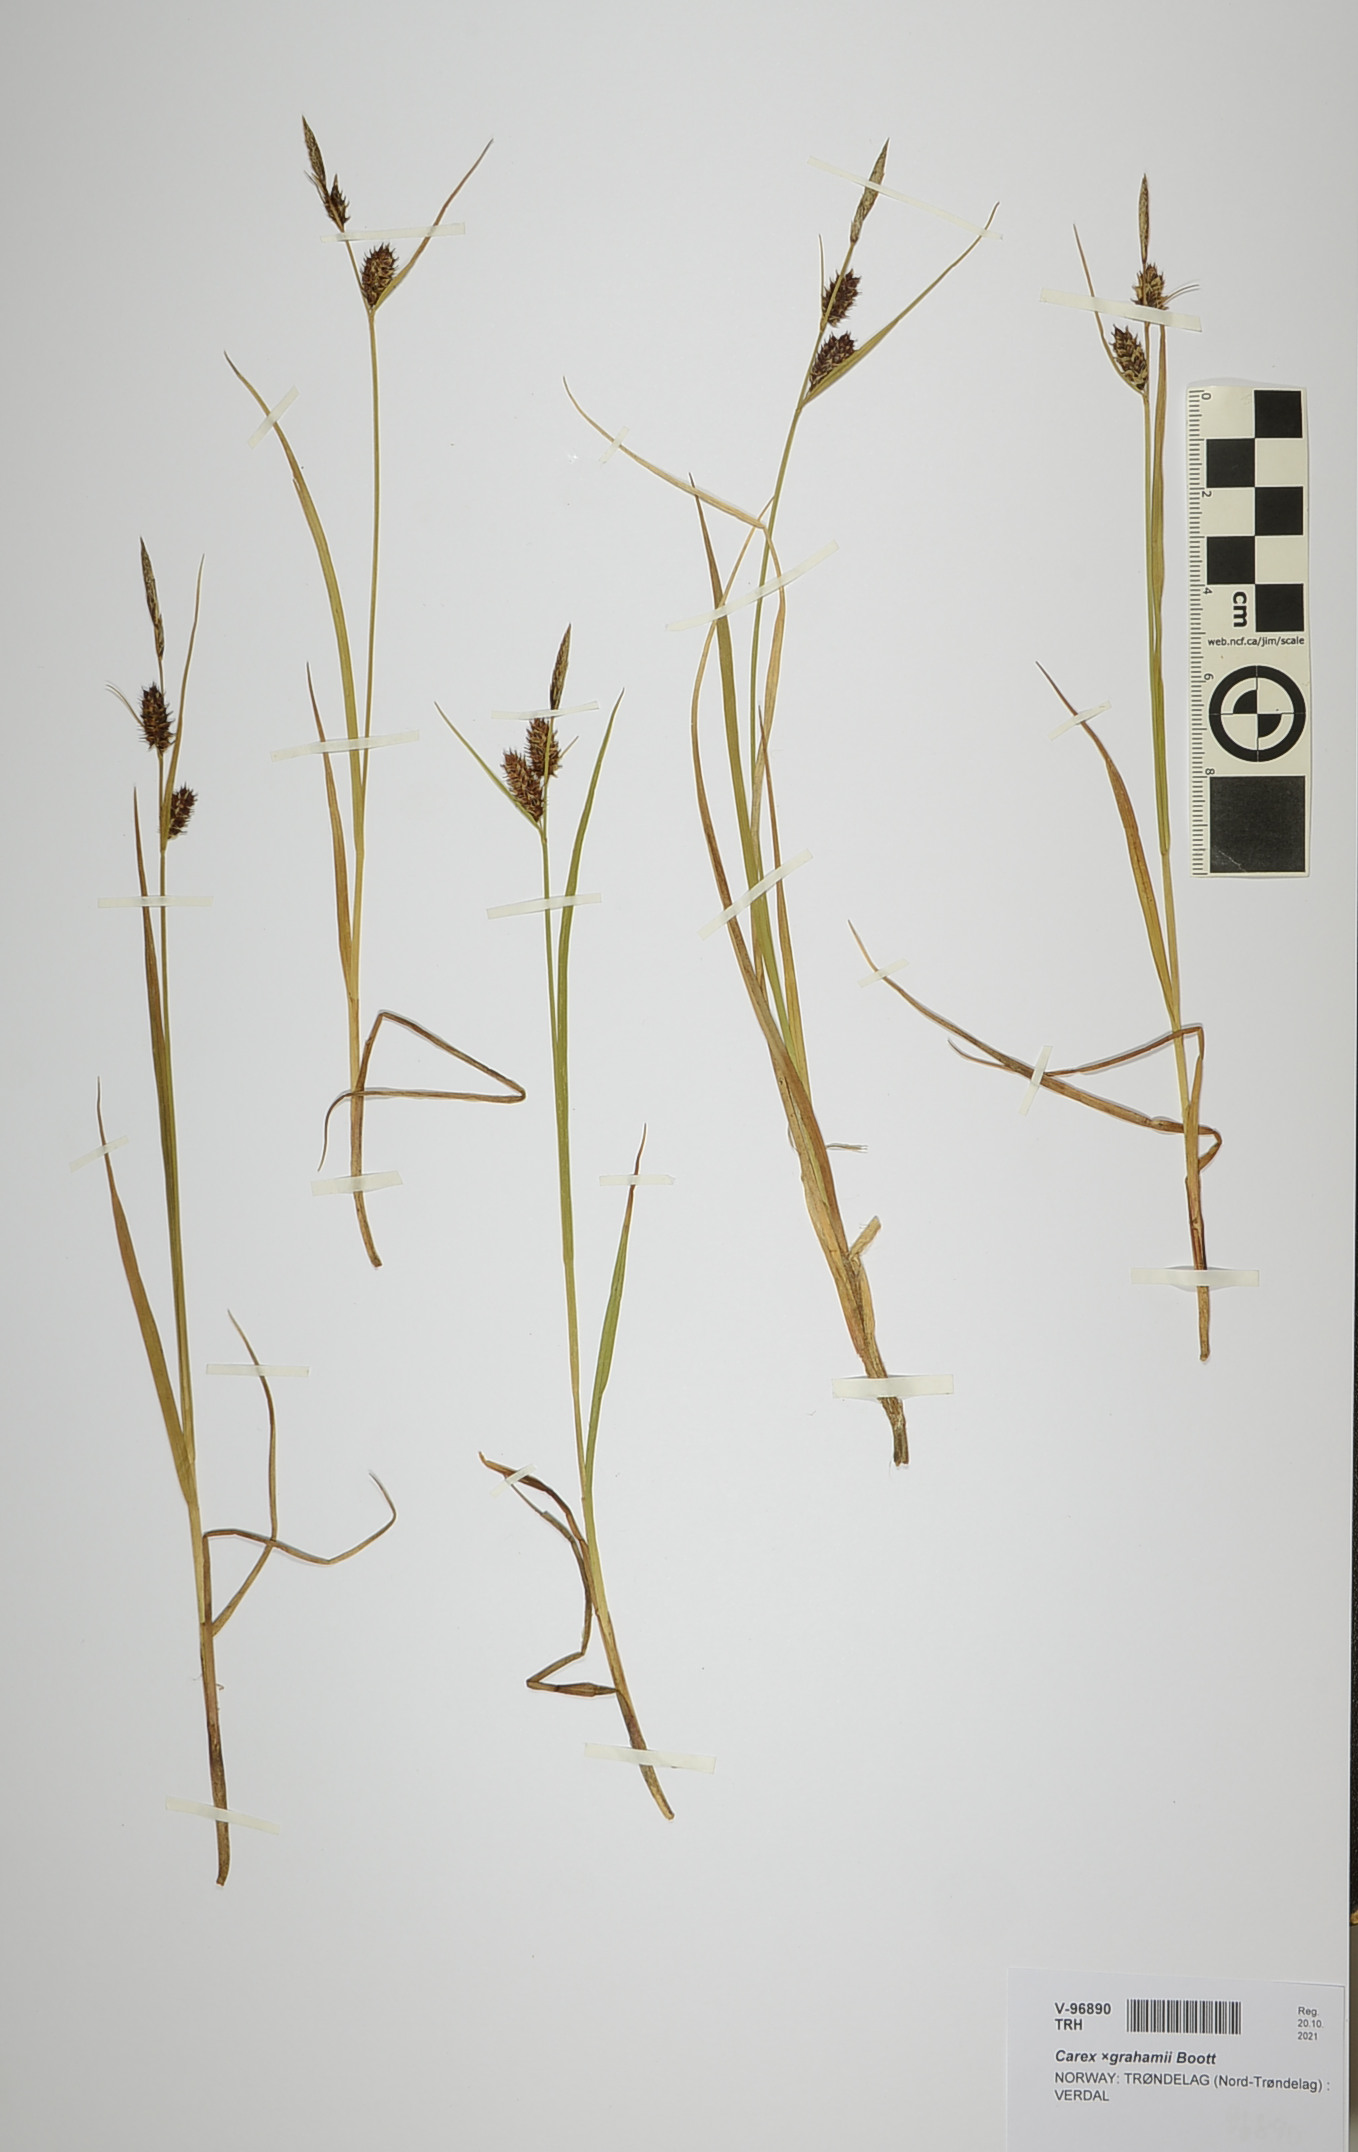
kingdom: Plantae
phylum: Tracheophyta
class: Liliopsida
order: Poales
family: Cyperaceae
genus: Carex
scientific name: Carex grahamii
